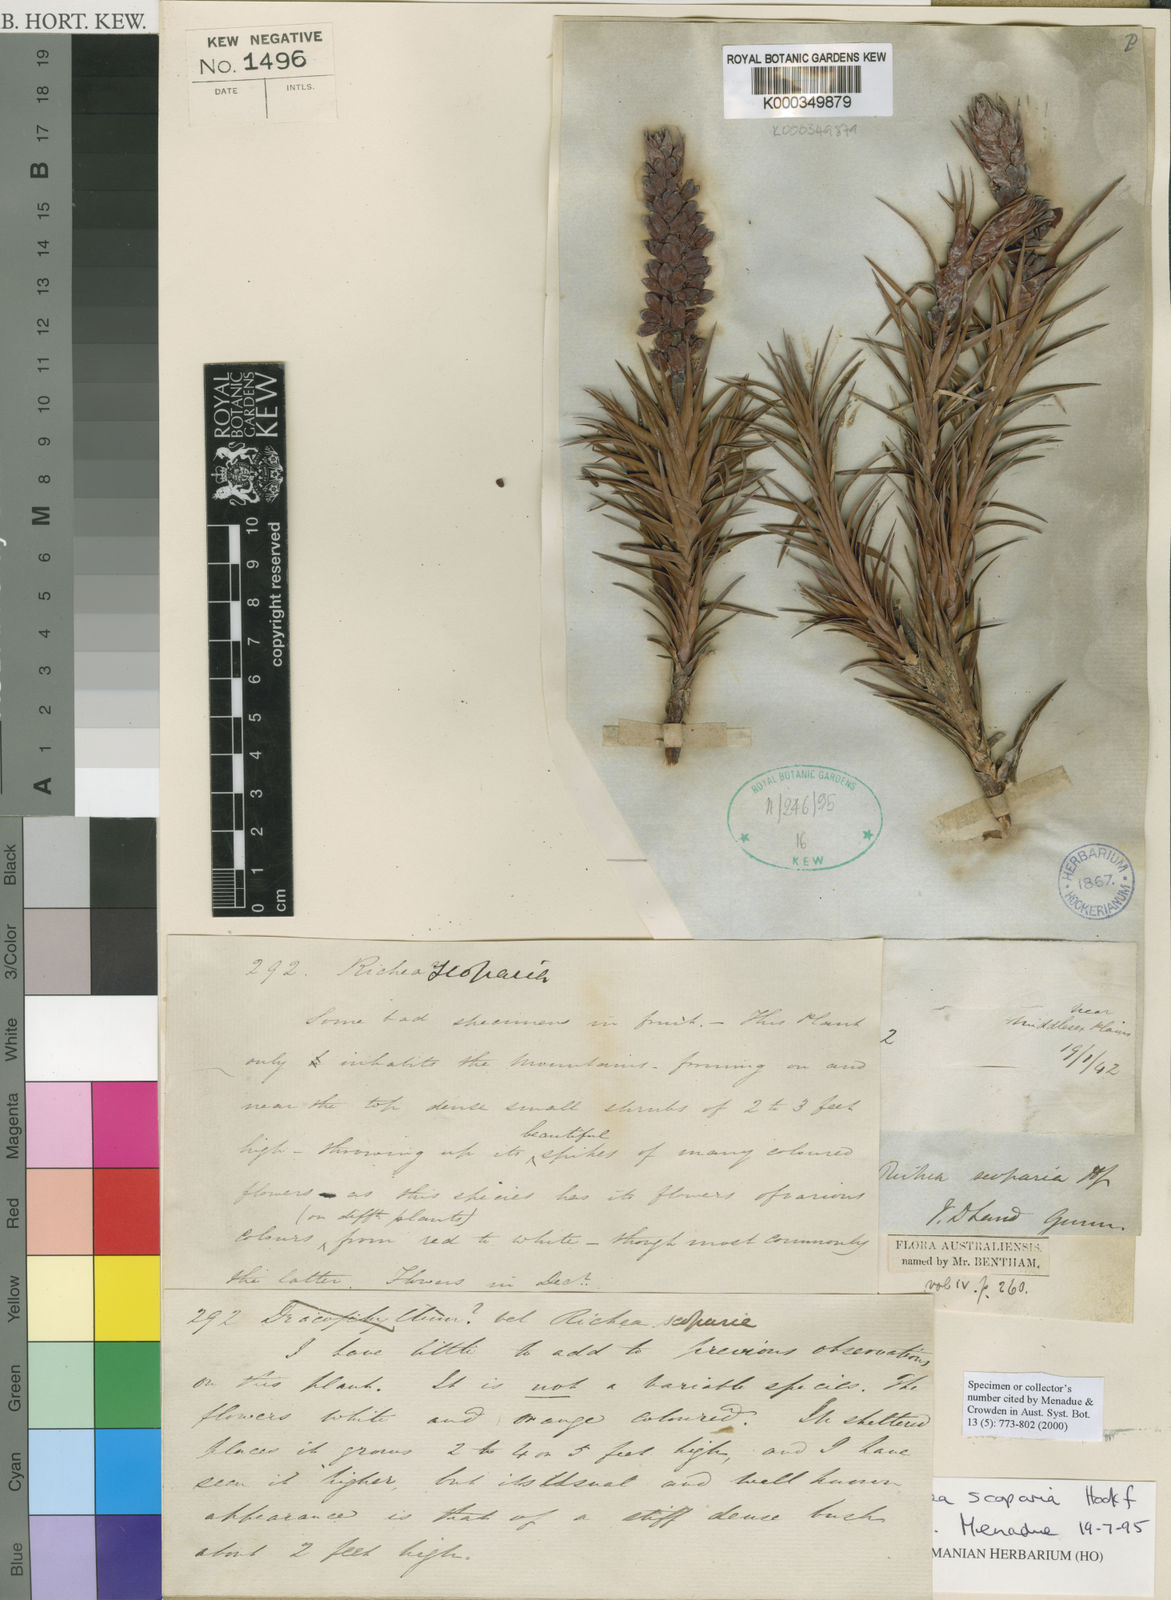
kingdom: Plantae
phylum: Tracheophyta
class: Magnoliopsida
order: Ericales
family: Ericaceae
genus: Dracophyllum
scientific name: Dracophyllum persistentifolium
